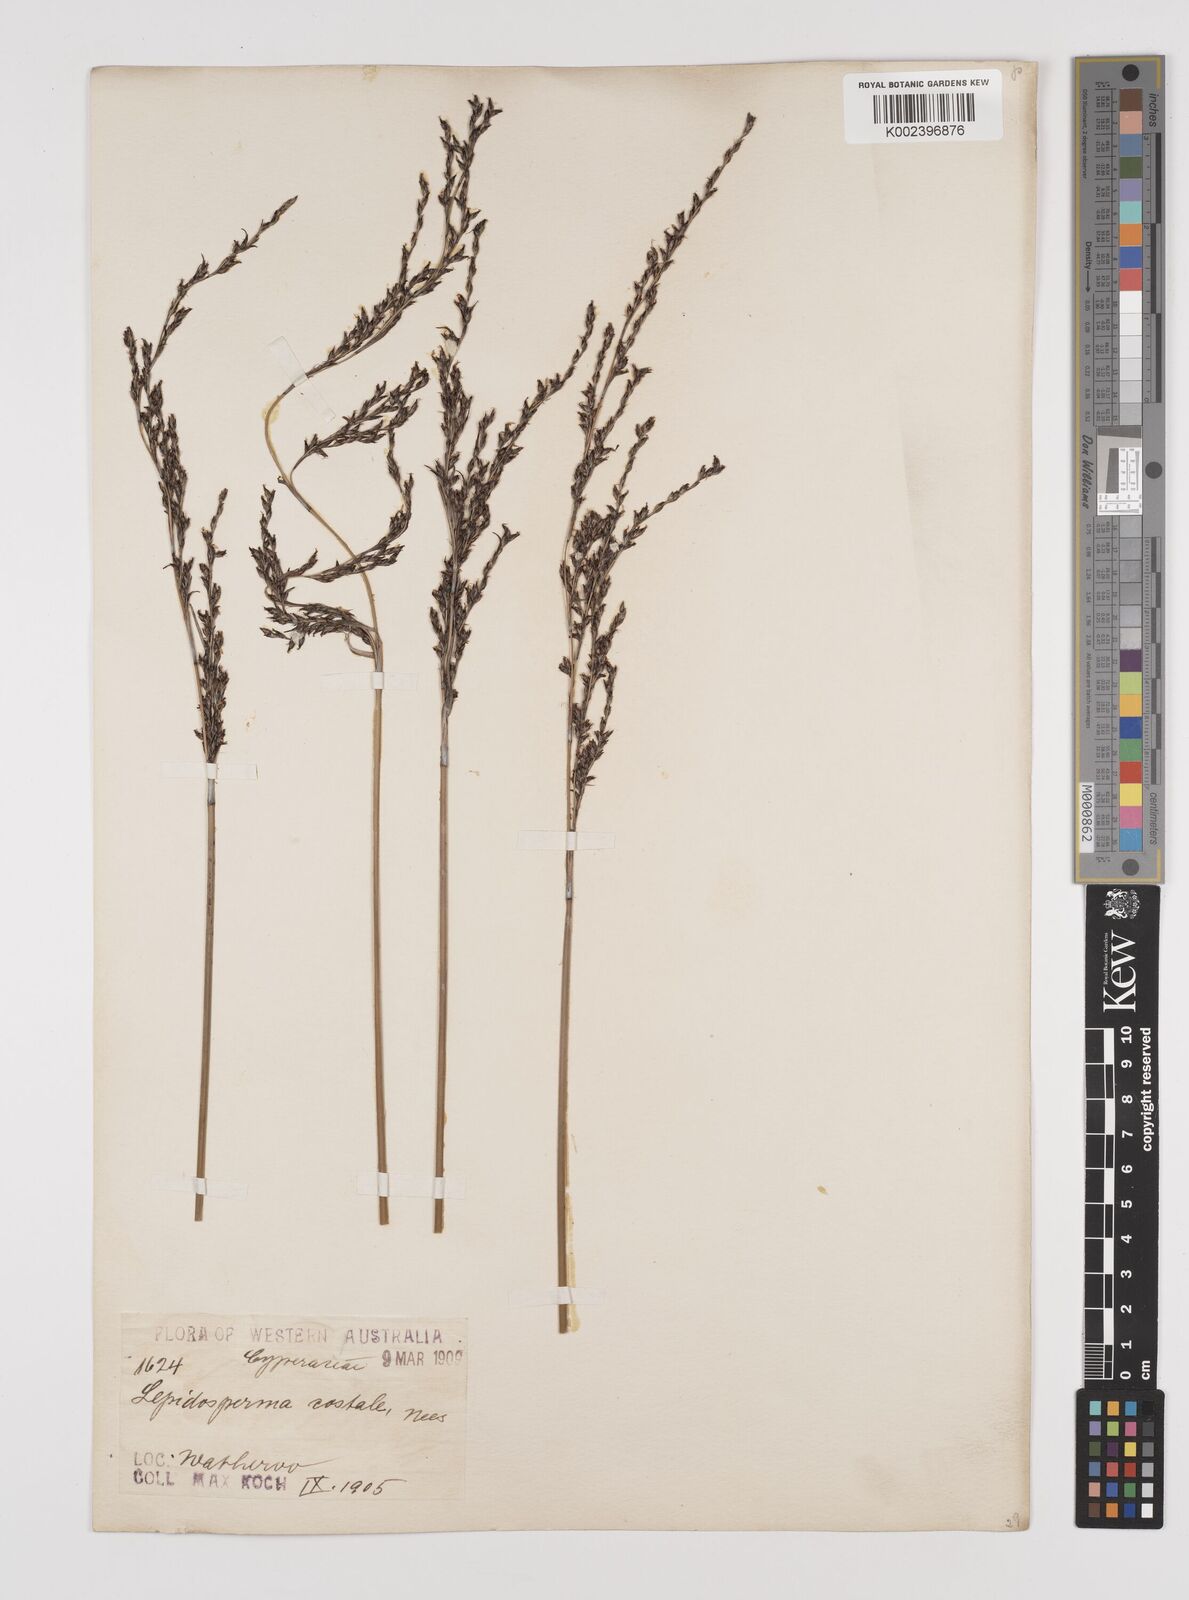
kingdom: Plantae
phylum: Tracheophyta
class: Liliopsida
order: Poales
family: Cyperaceae
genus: Lepidosperma
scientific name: Lepidosperma costale
